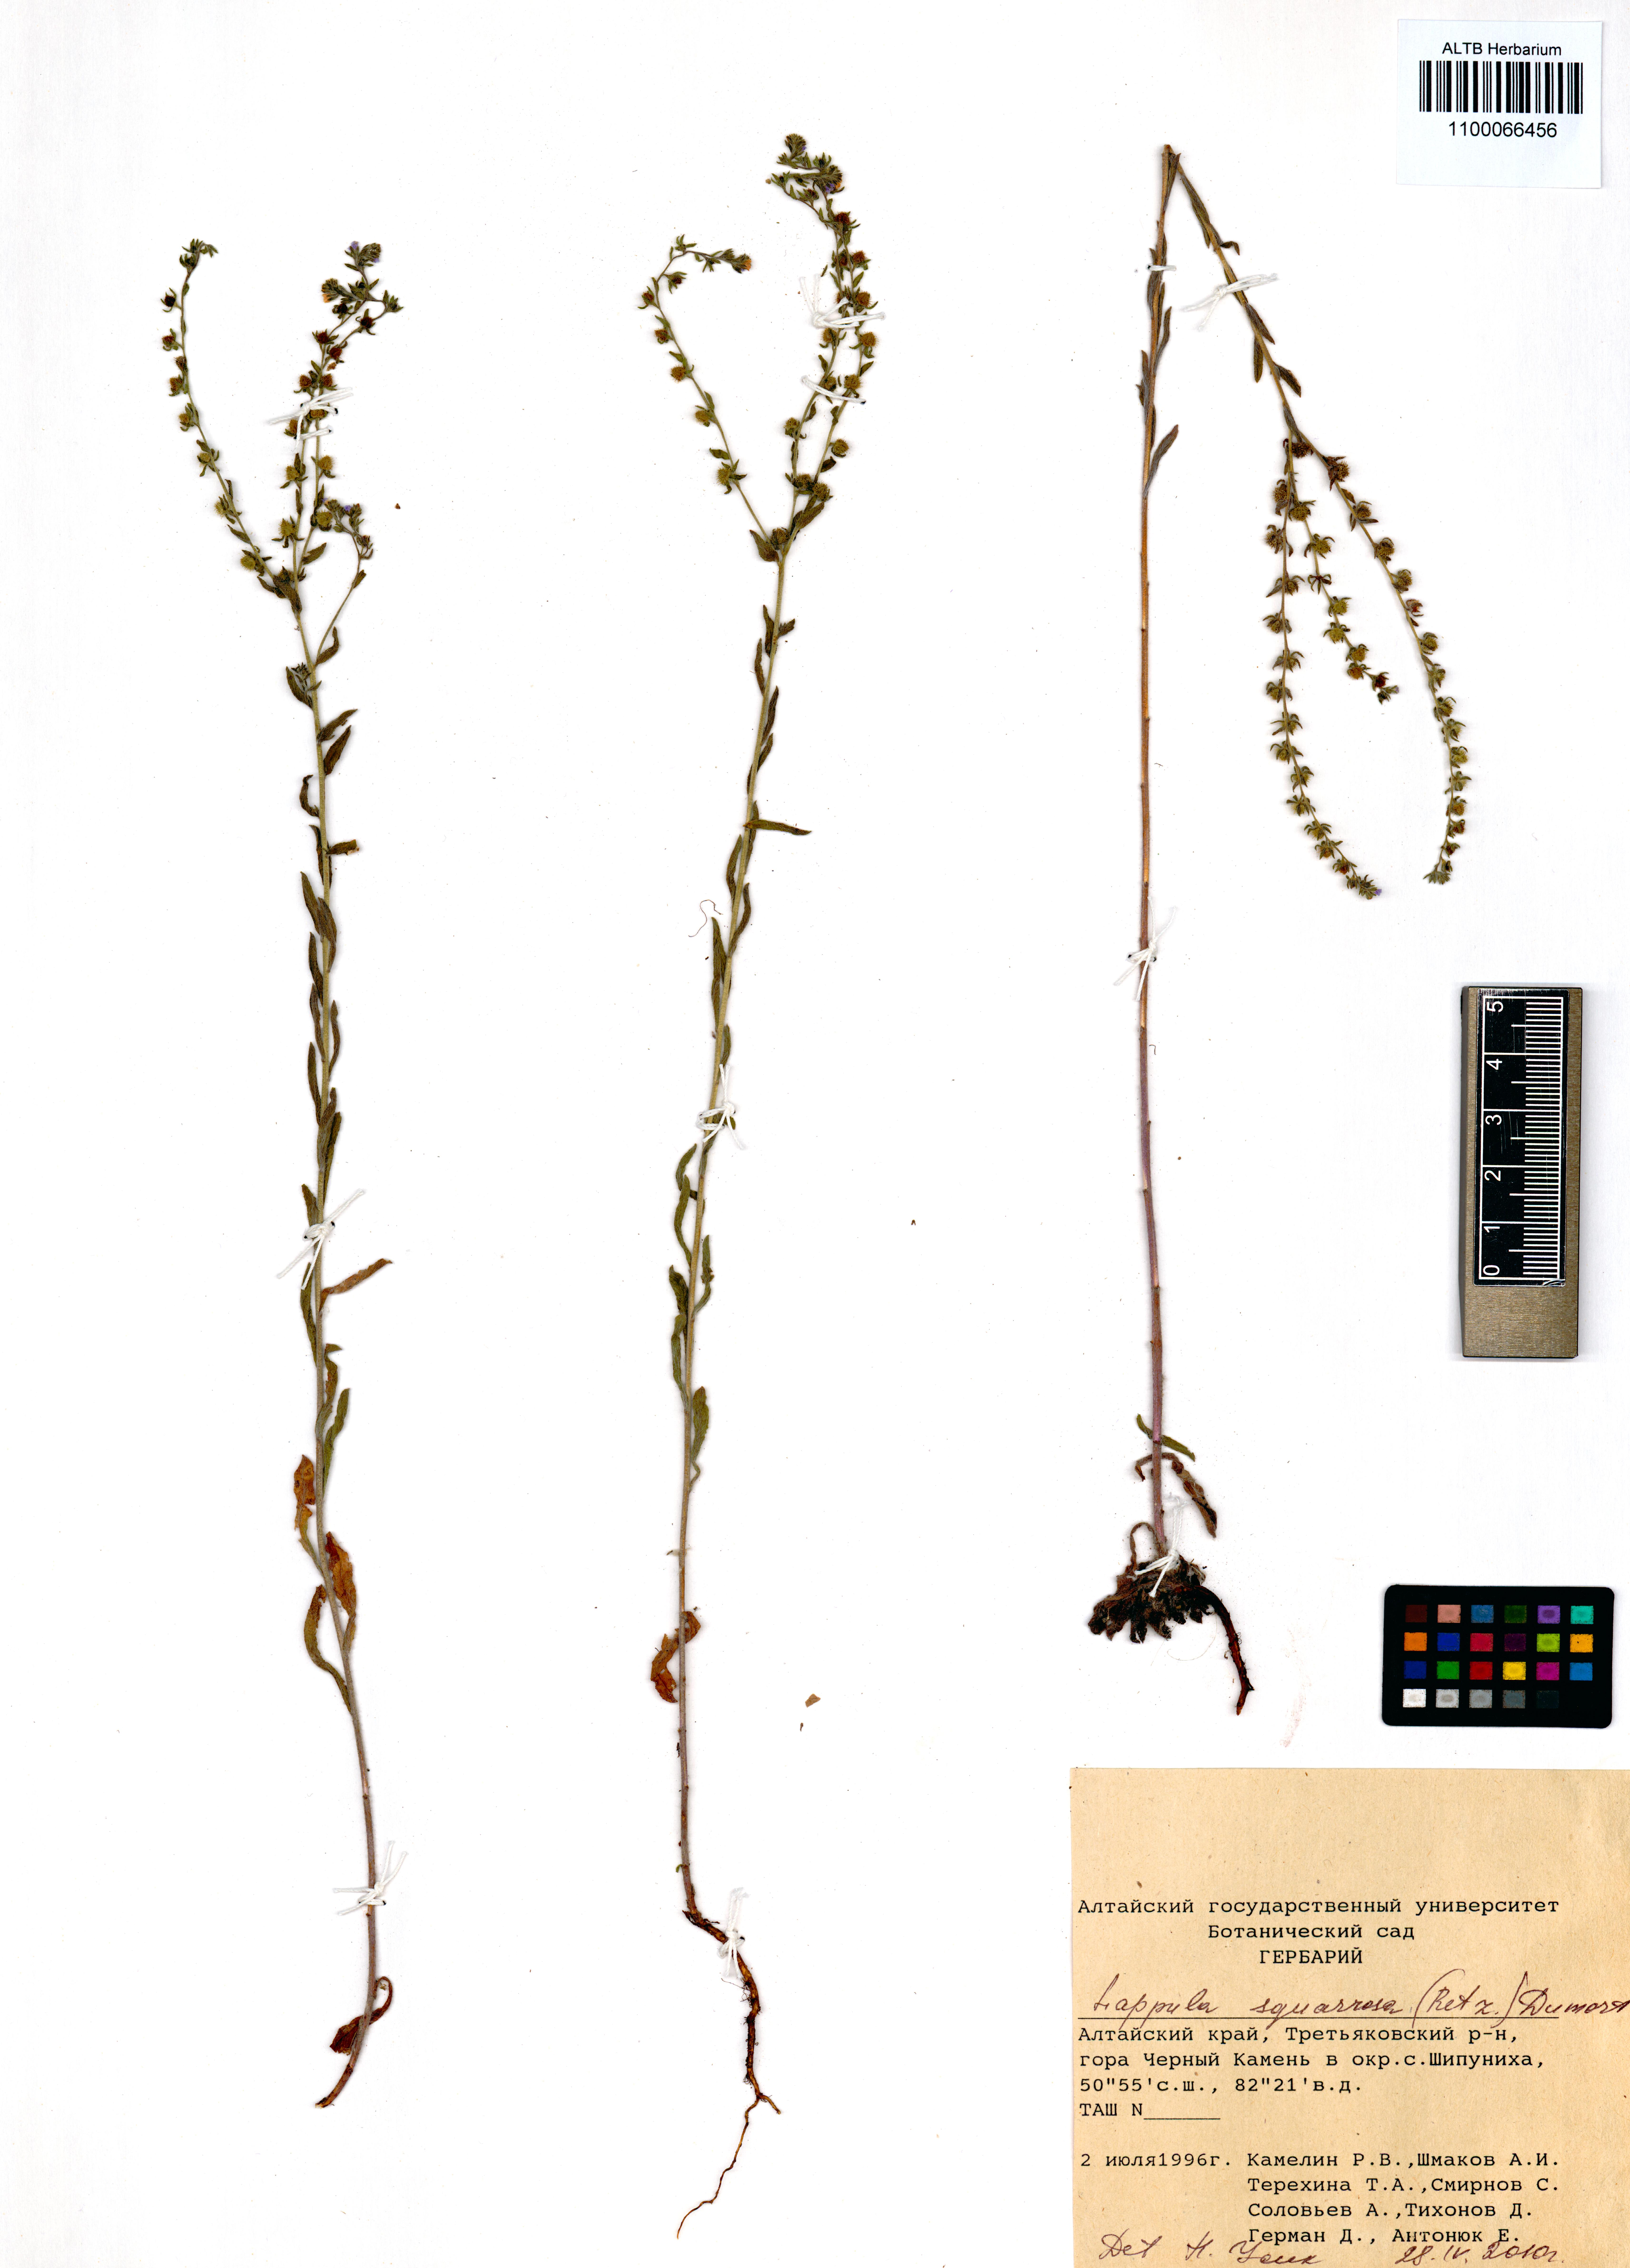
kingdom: Plantae
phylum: Tracheophyta
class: Magnoliopsida
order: Boraginales
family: Boraginaceae
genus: Lappula
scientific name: Lappula squarrosa
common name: European stickseed
